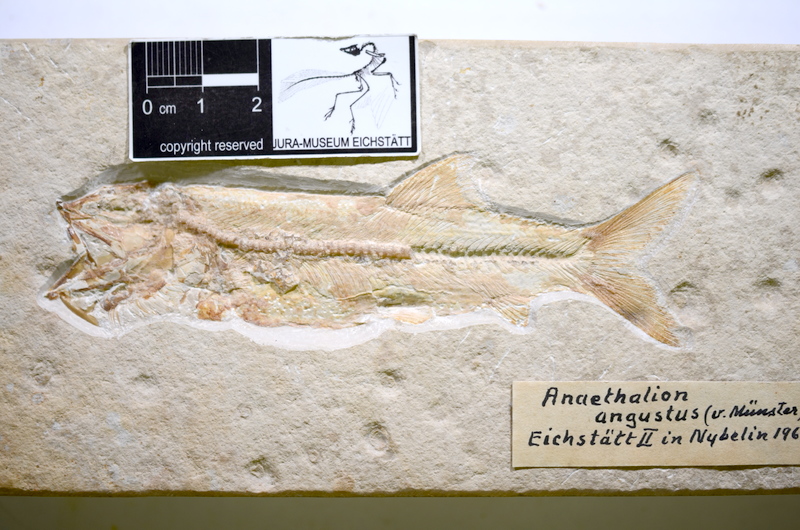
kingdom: Animalia
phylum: Chordata
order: Elopiformes
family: Anaethalionidae
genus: Anaethalion
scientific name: Anaethalion angustus
